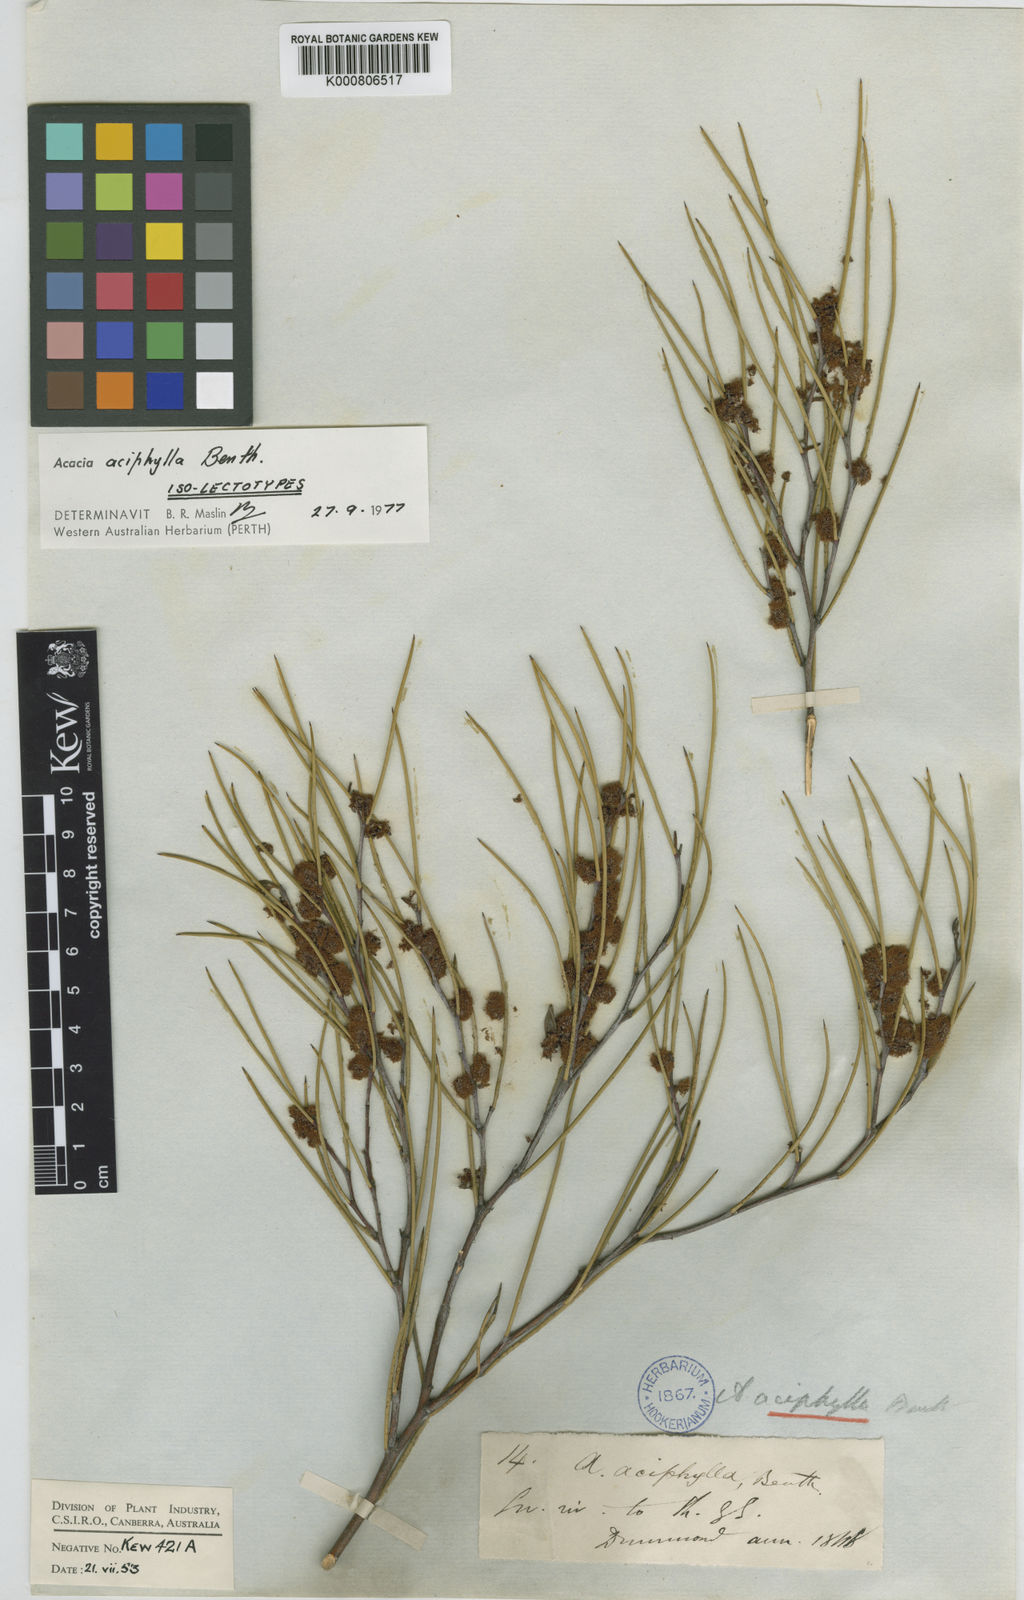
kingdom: Plantae
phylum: Tracheophyta
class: Magnoliopsida
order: Fabales
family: Fabaceae
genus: Acacia
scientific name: Acacia aciphylla
